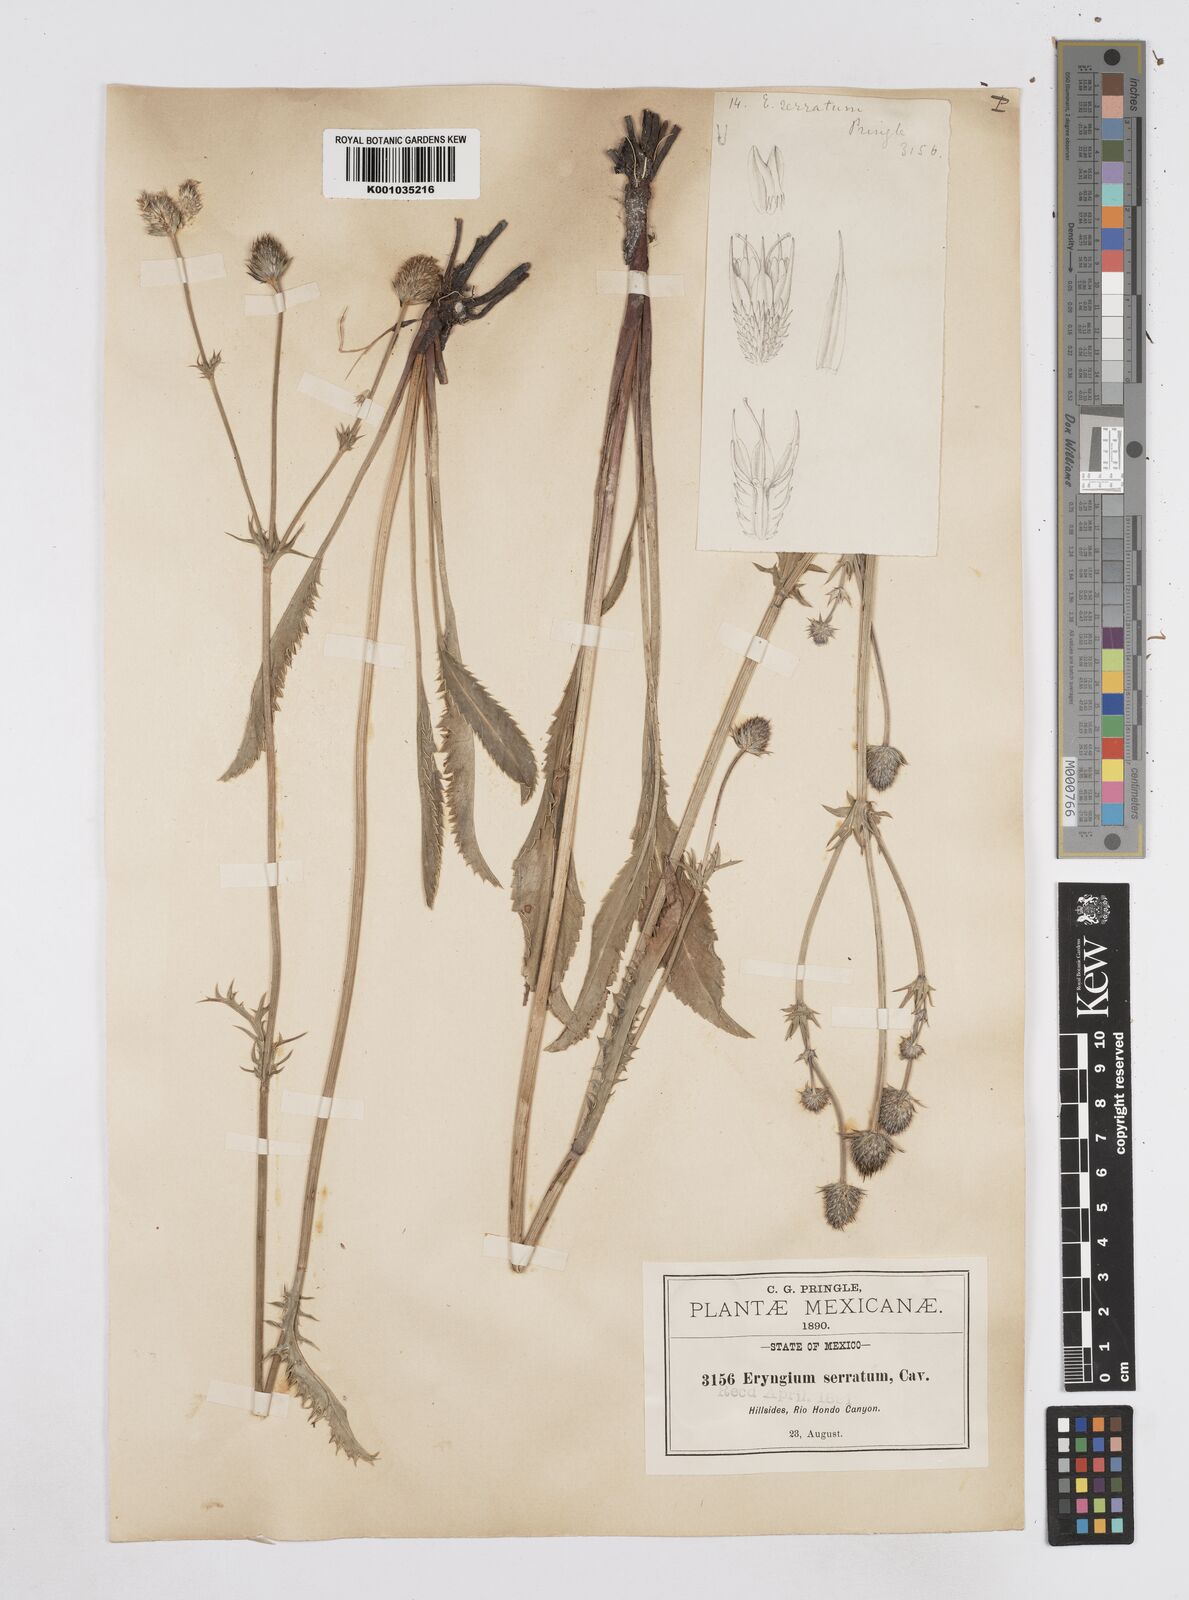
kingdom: Plantae
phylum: Tracheophyta
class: Magnoliopsida
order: Apiales
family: Apiaceae
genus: Eryngium
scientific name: Eryngium serratum
